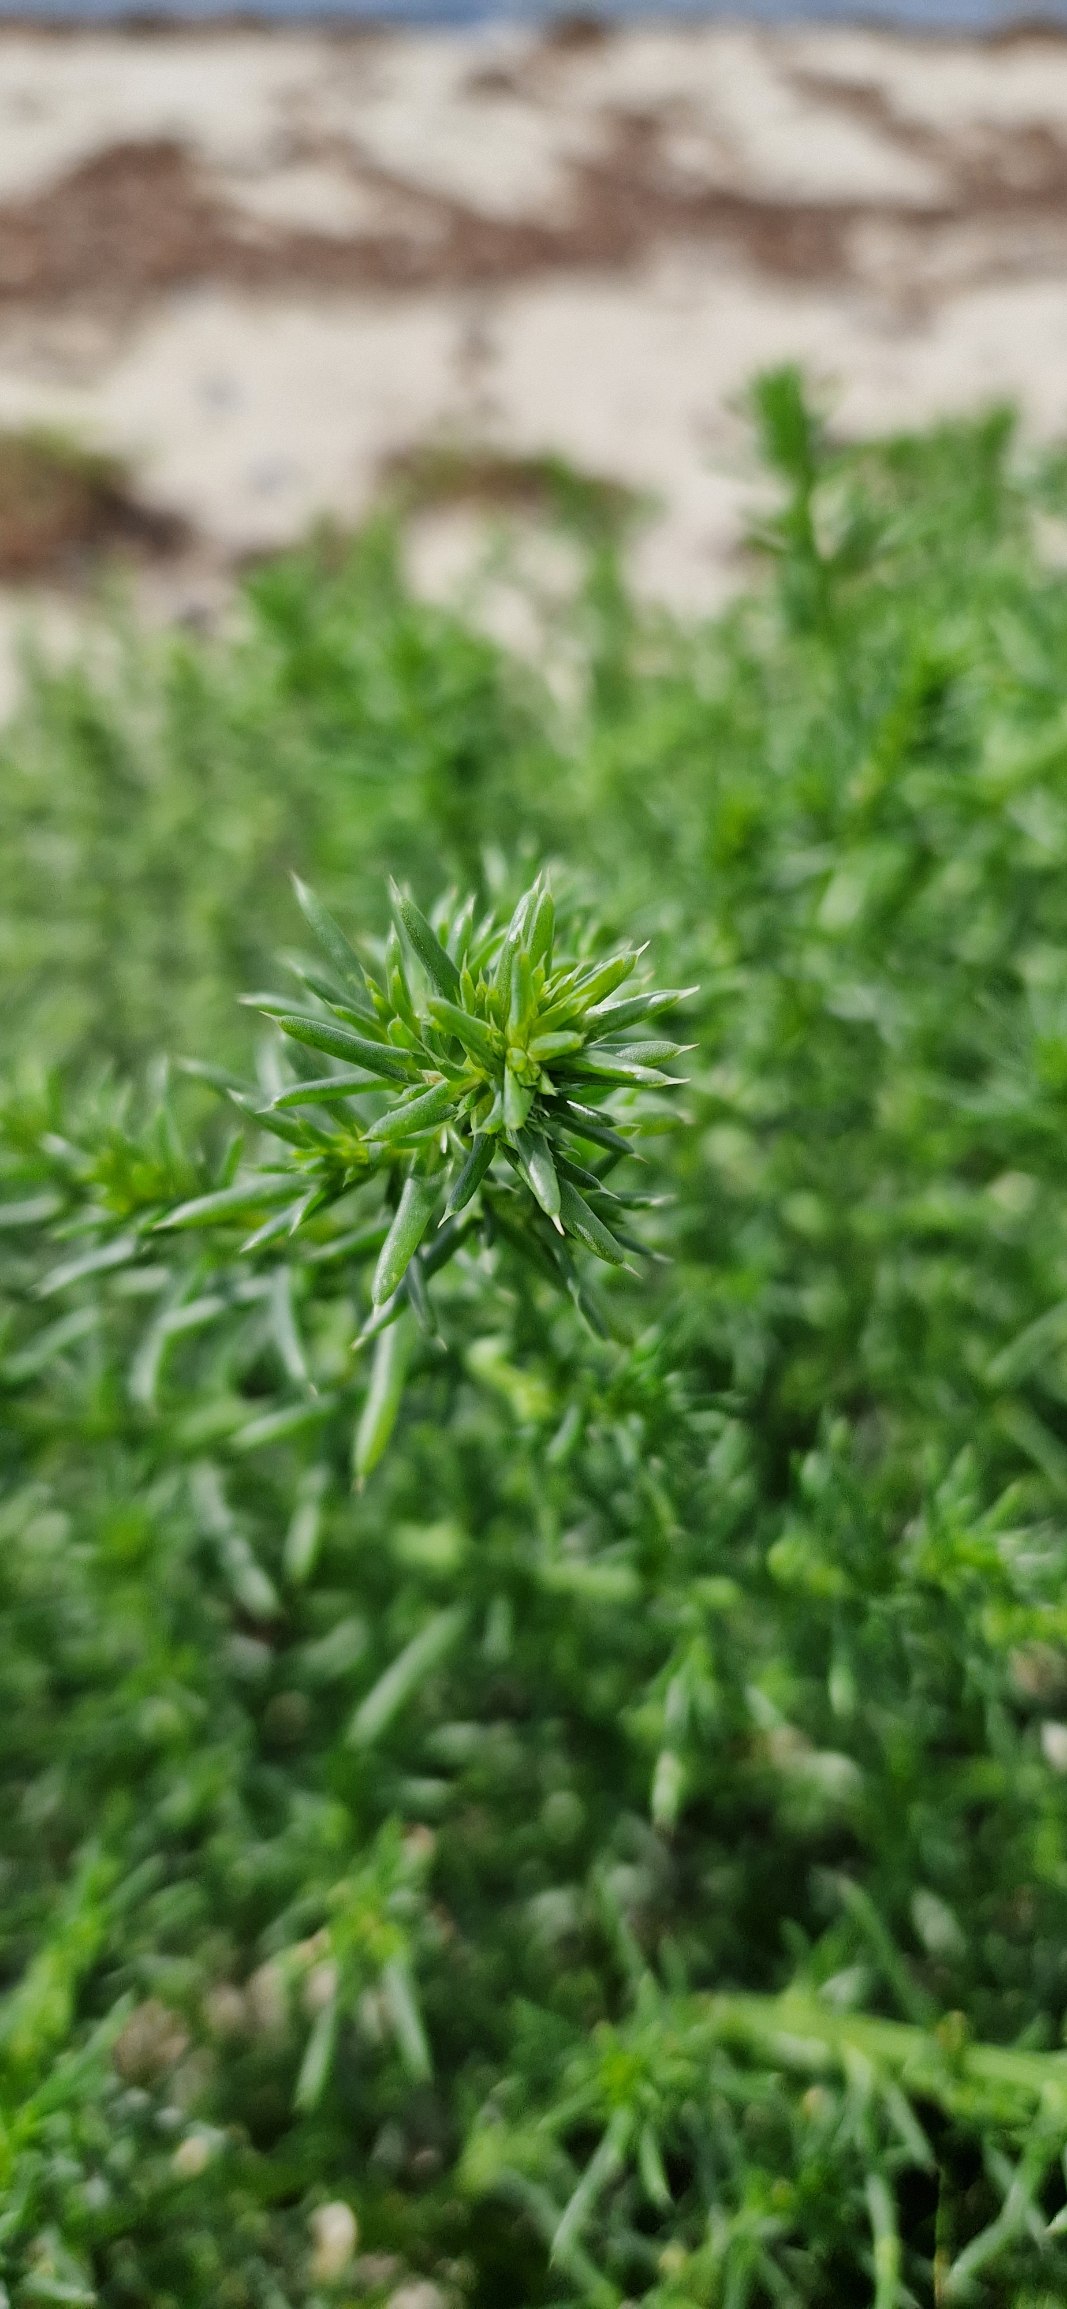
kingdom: Plantae
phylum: Tracheophyta
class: Magnoliopsida
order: Caryophyllales
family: Amaranthaceae
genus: Salsola
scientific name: Salsola kali
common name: Sodaurt
